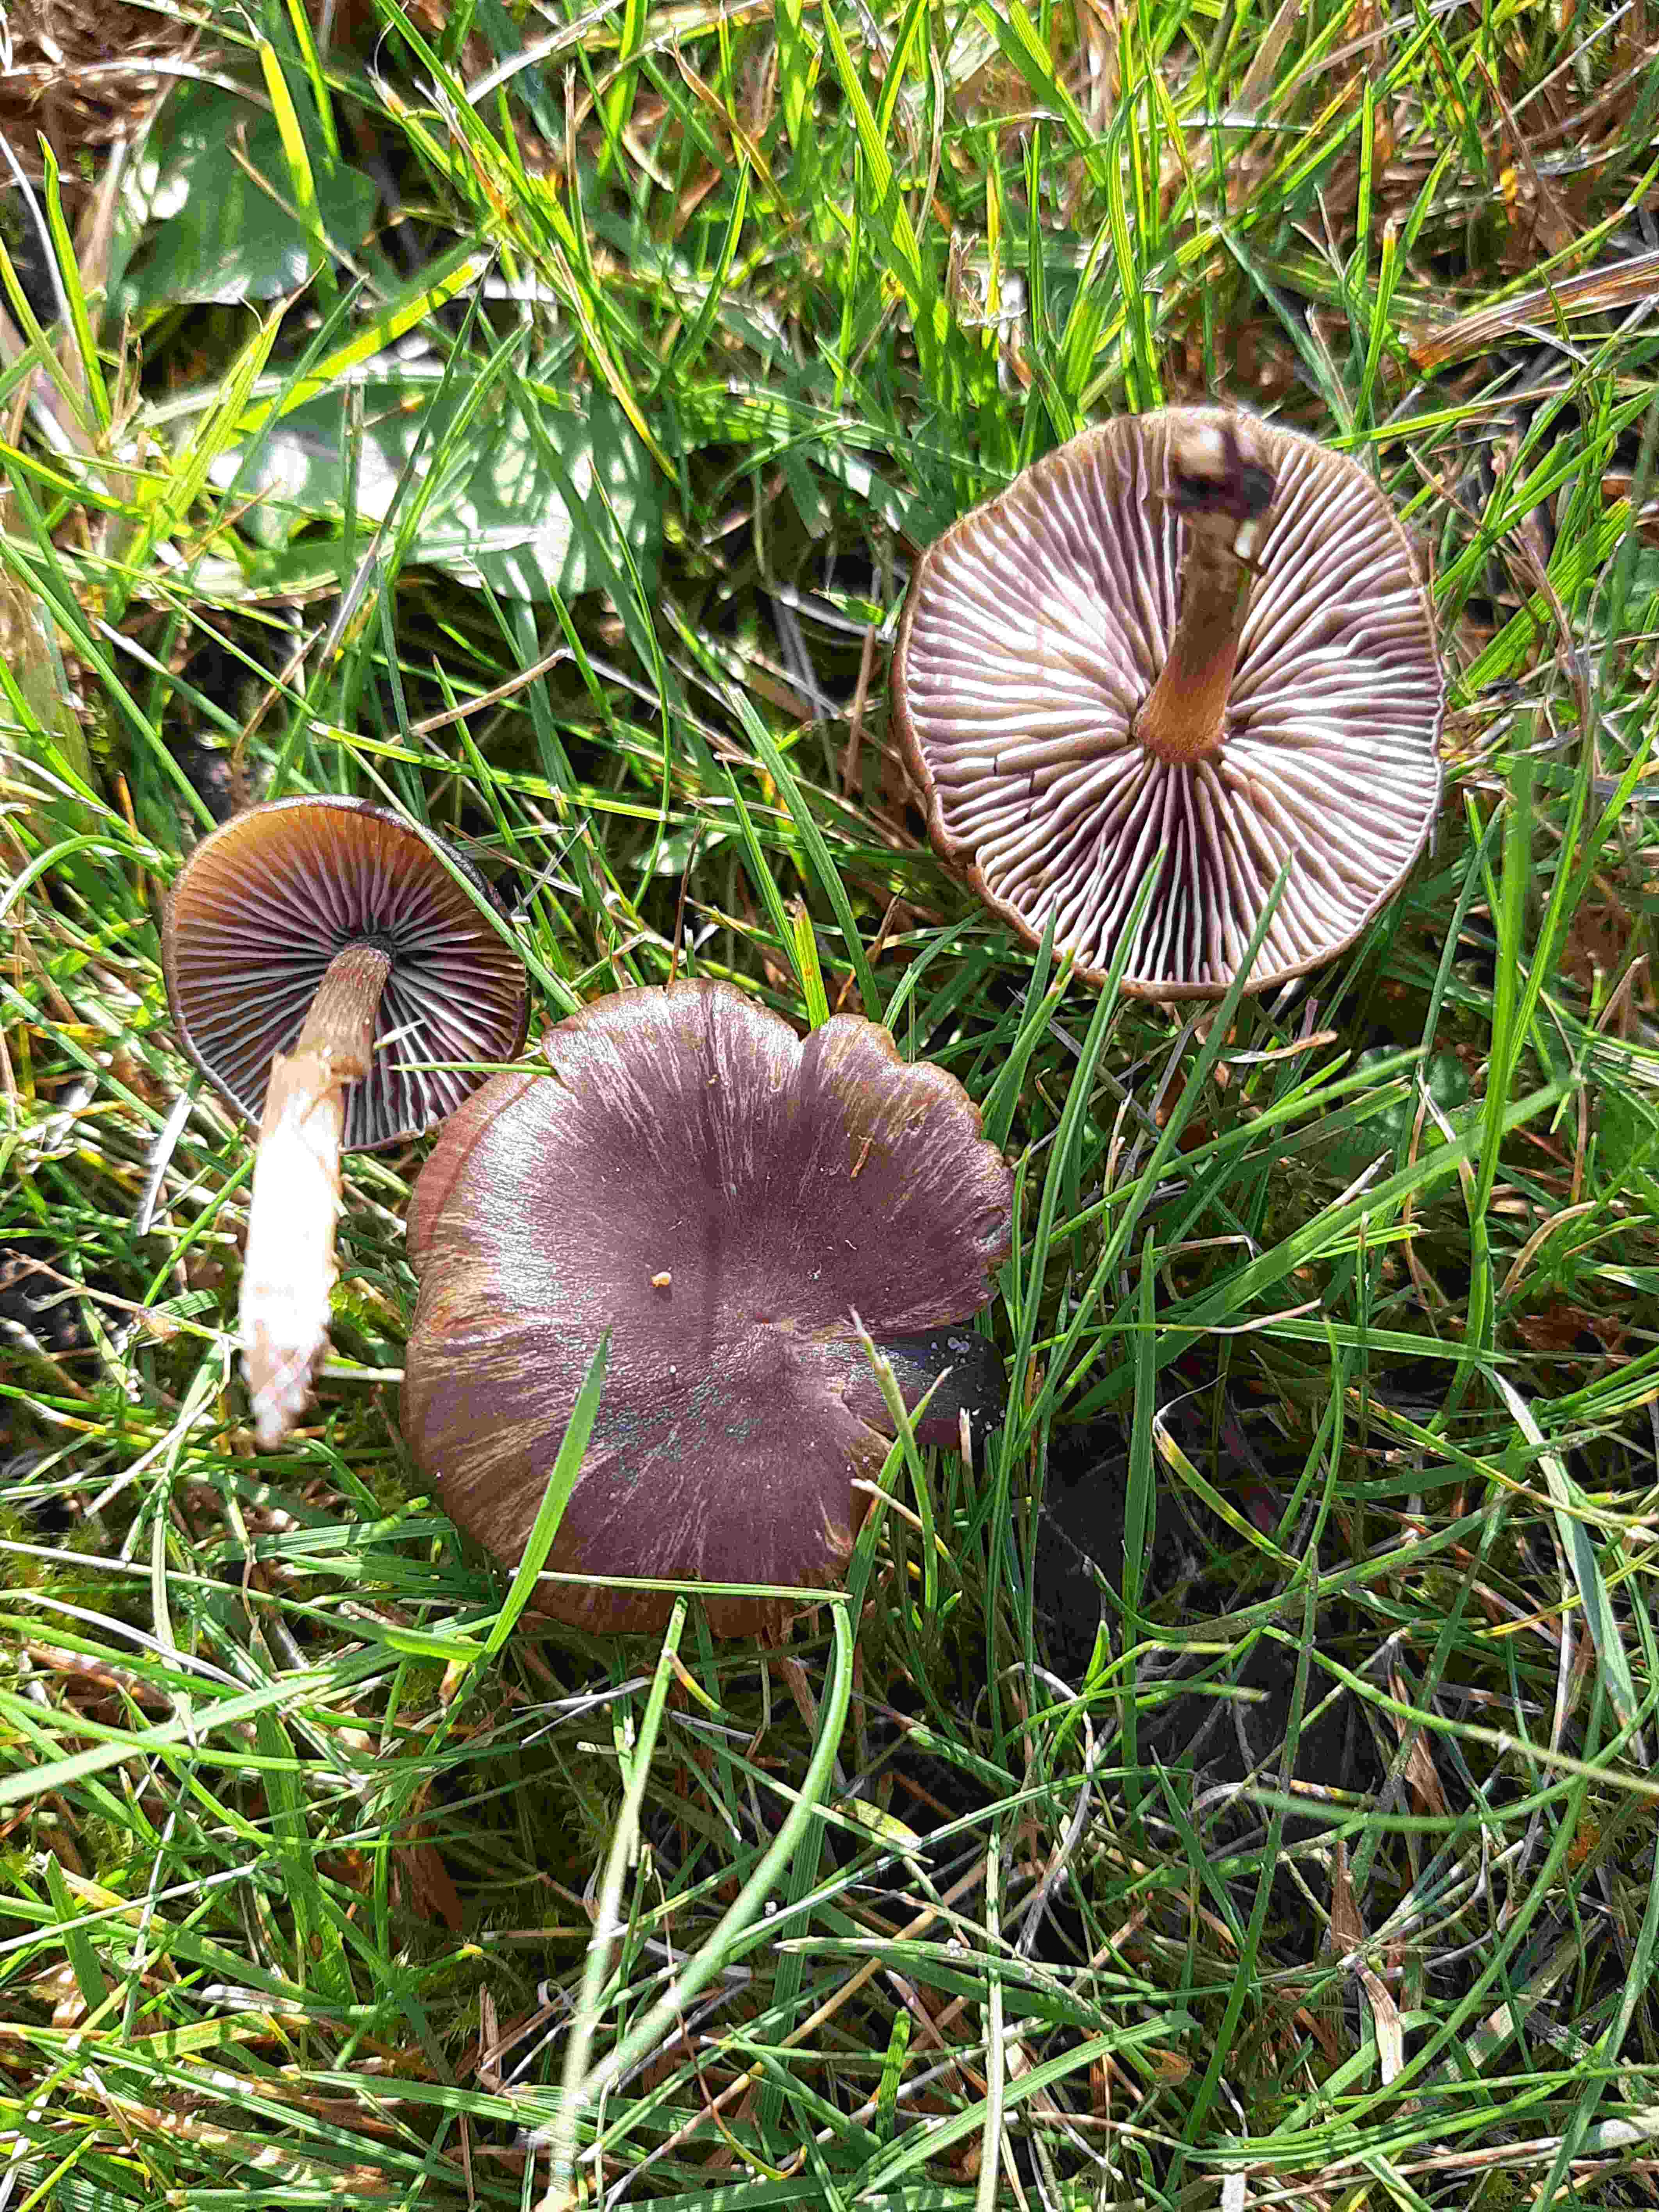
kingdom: Fungi
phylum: Basidiomycota
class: Agaricomycetes
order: Agaricales
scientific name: Agaricales
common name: champignonordenen
